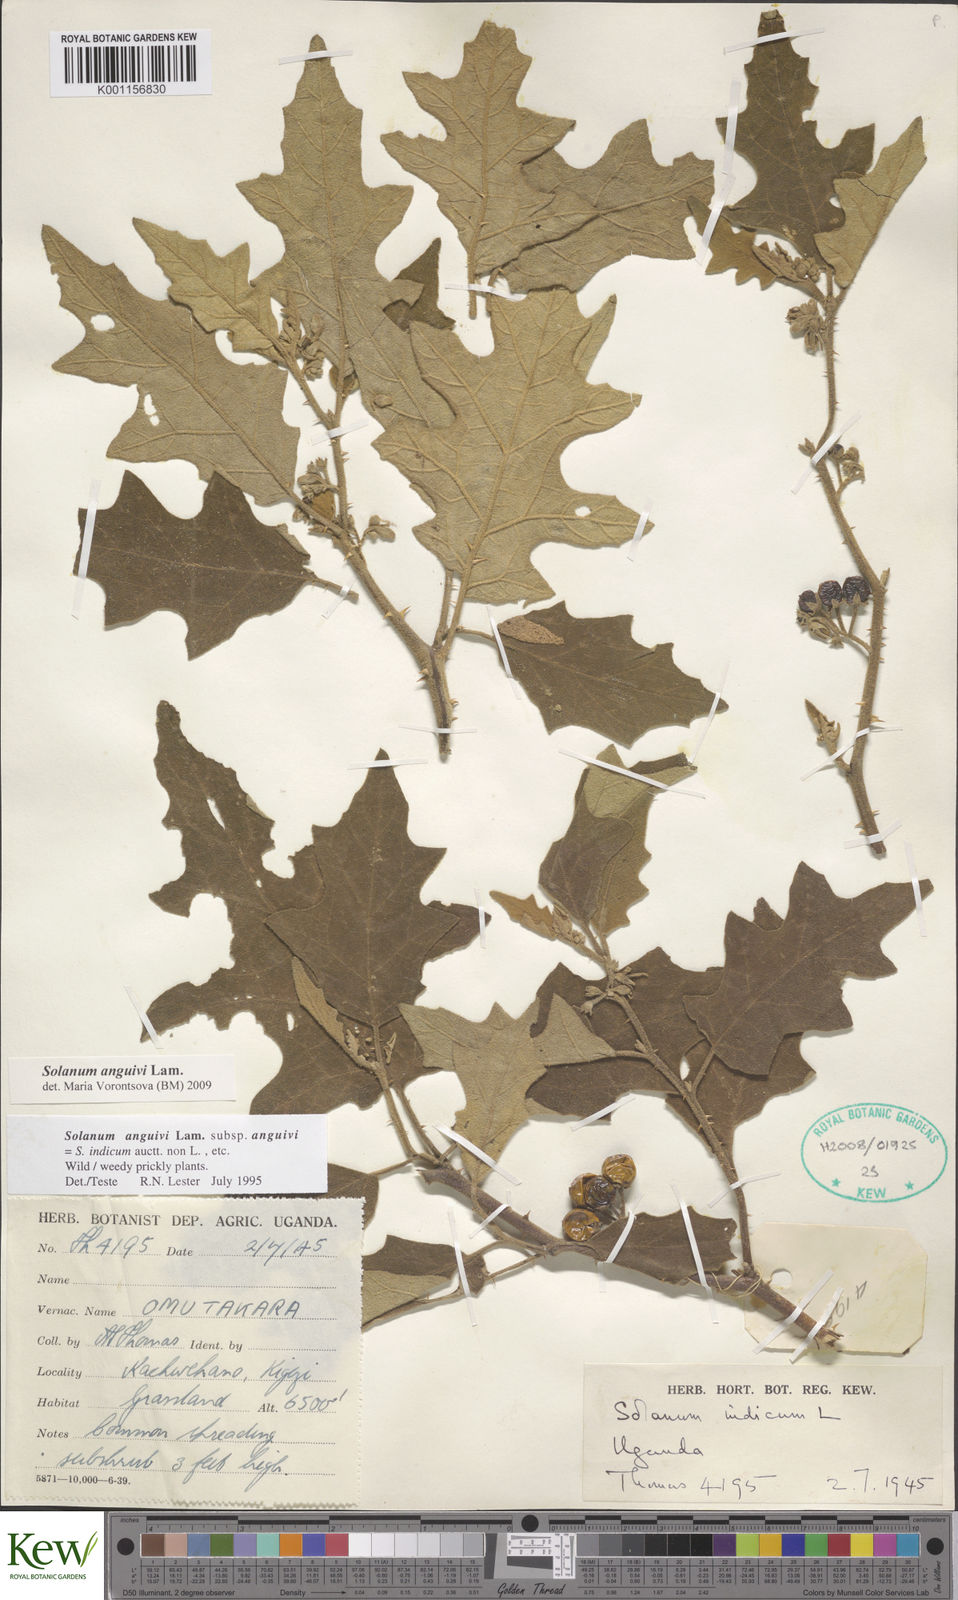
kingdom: Plantae
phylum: Tracheophyta
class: Magnoliopsida
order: Solanales
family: Solanaceae
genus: Solanum
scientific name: Solanum anguivi
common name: Forest bitterberry
